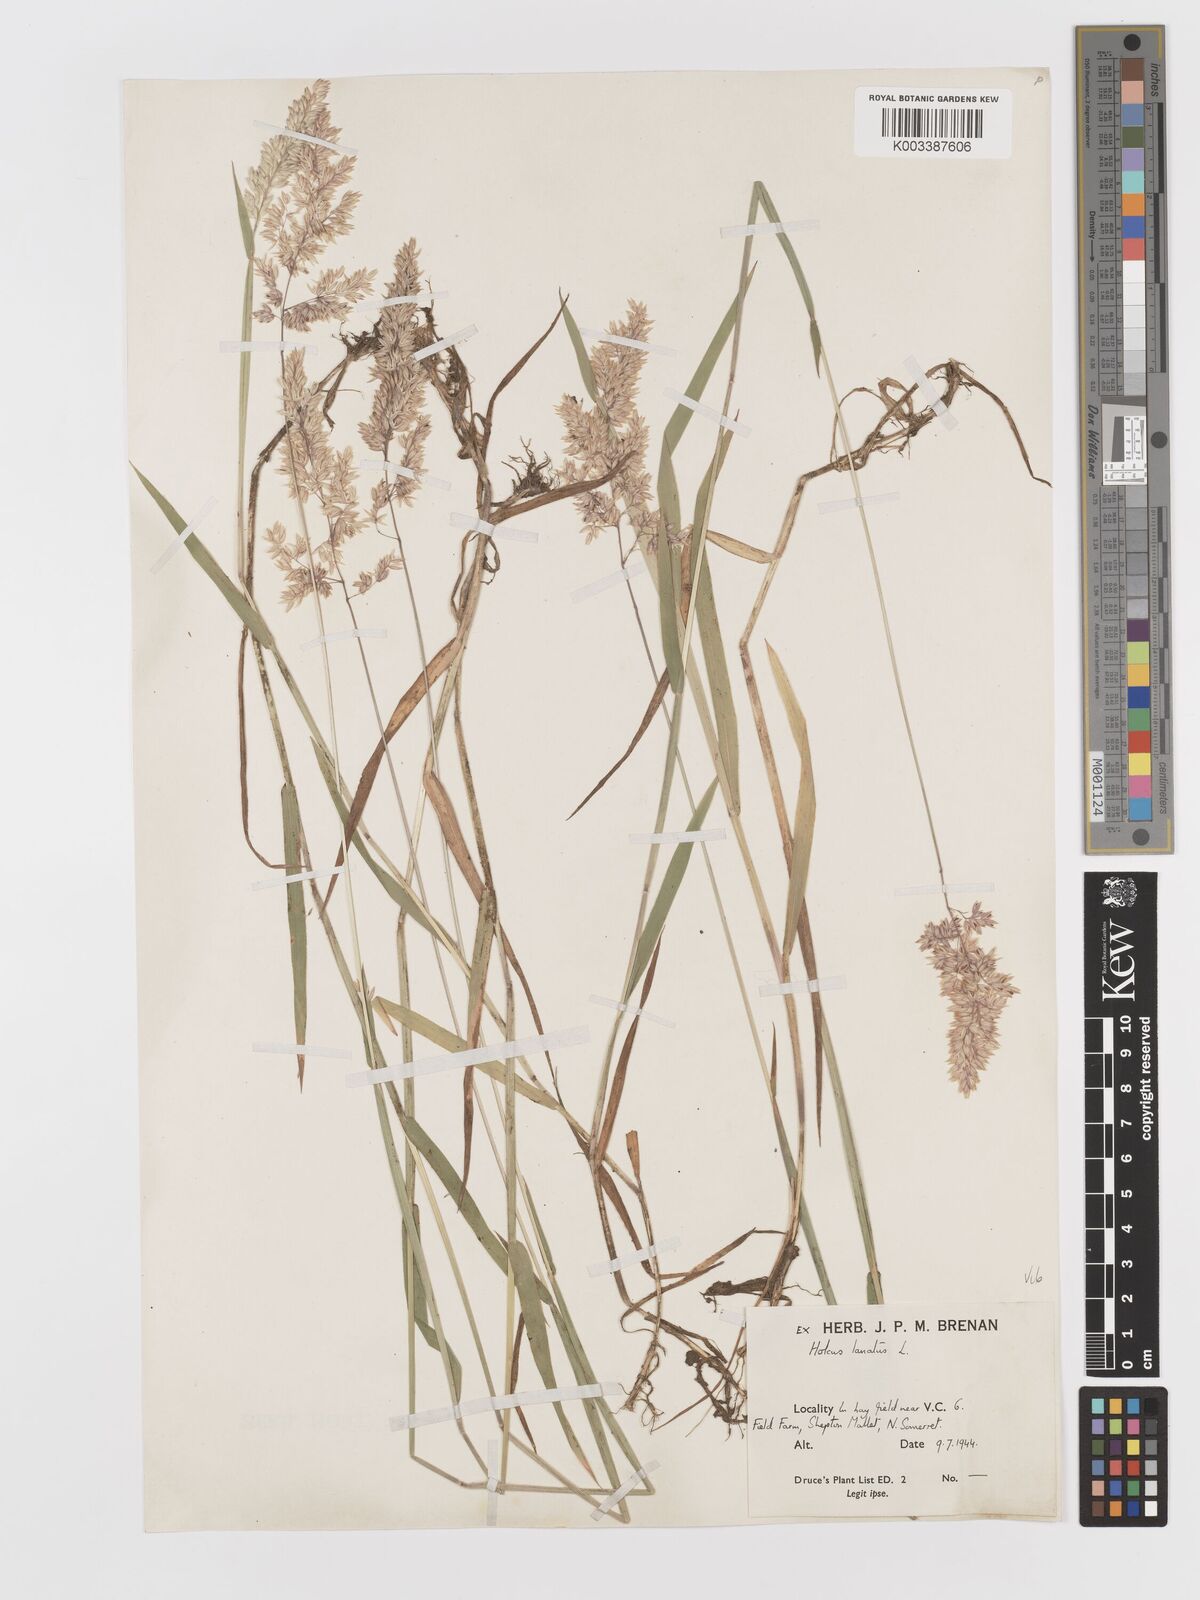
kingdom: Plantae
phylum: Tracheophyta
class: Liliopsida
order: Poales
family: Poaceae
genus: Holcus
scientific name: Holcus lanatus
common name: Yorkshire-fog
